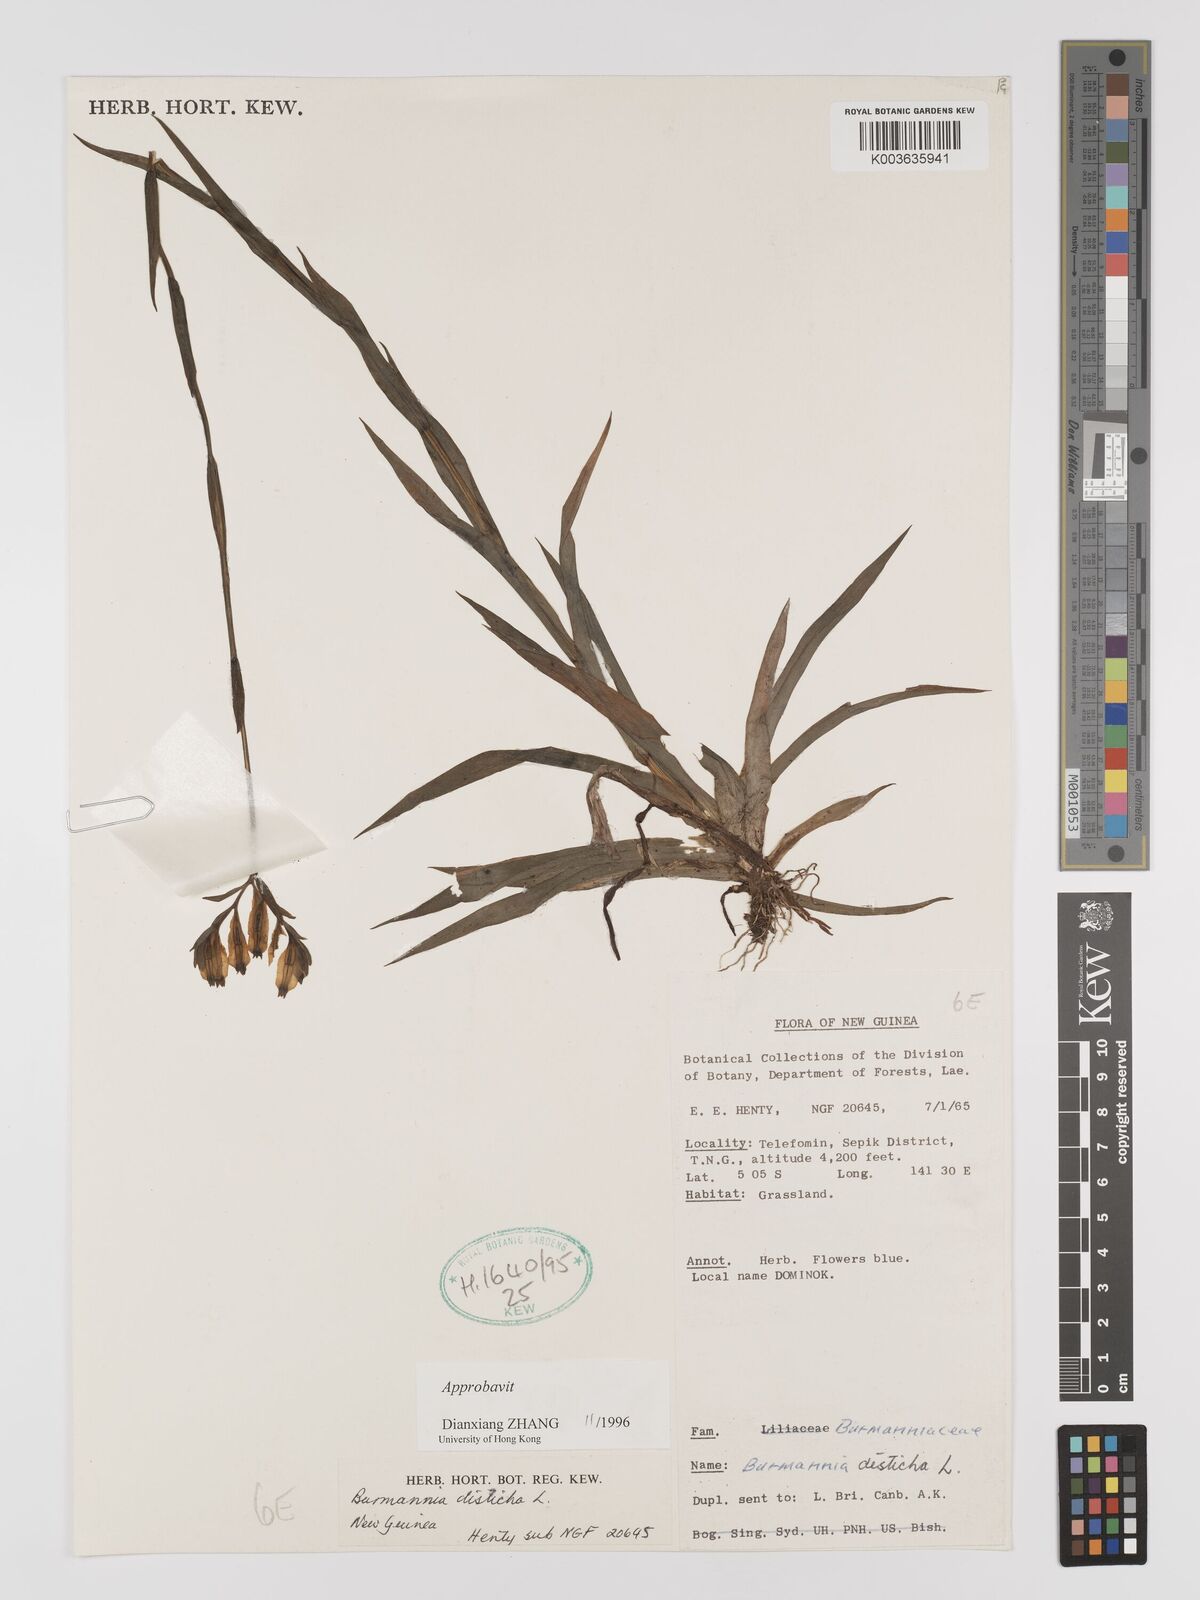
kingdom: Plantae
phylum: Tracheophyta
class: Liliopsida
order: Dioscoreales
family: Burmanniaceae
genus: Burmannia
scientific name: Burmannia disticha
